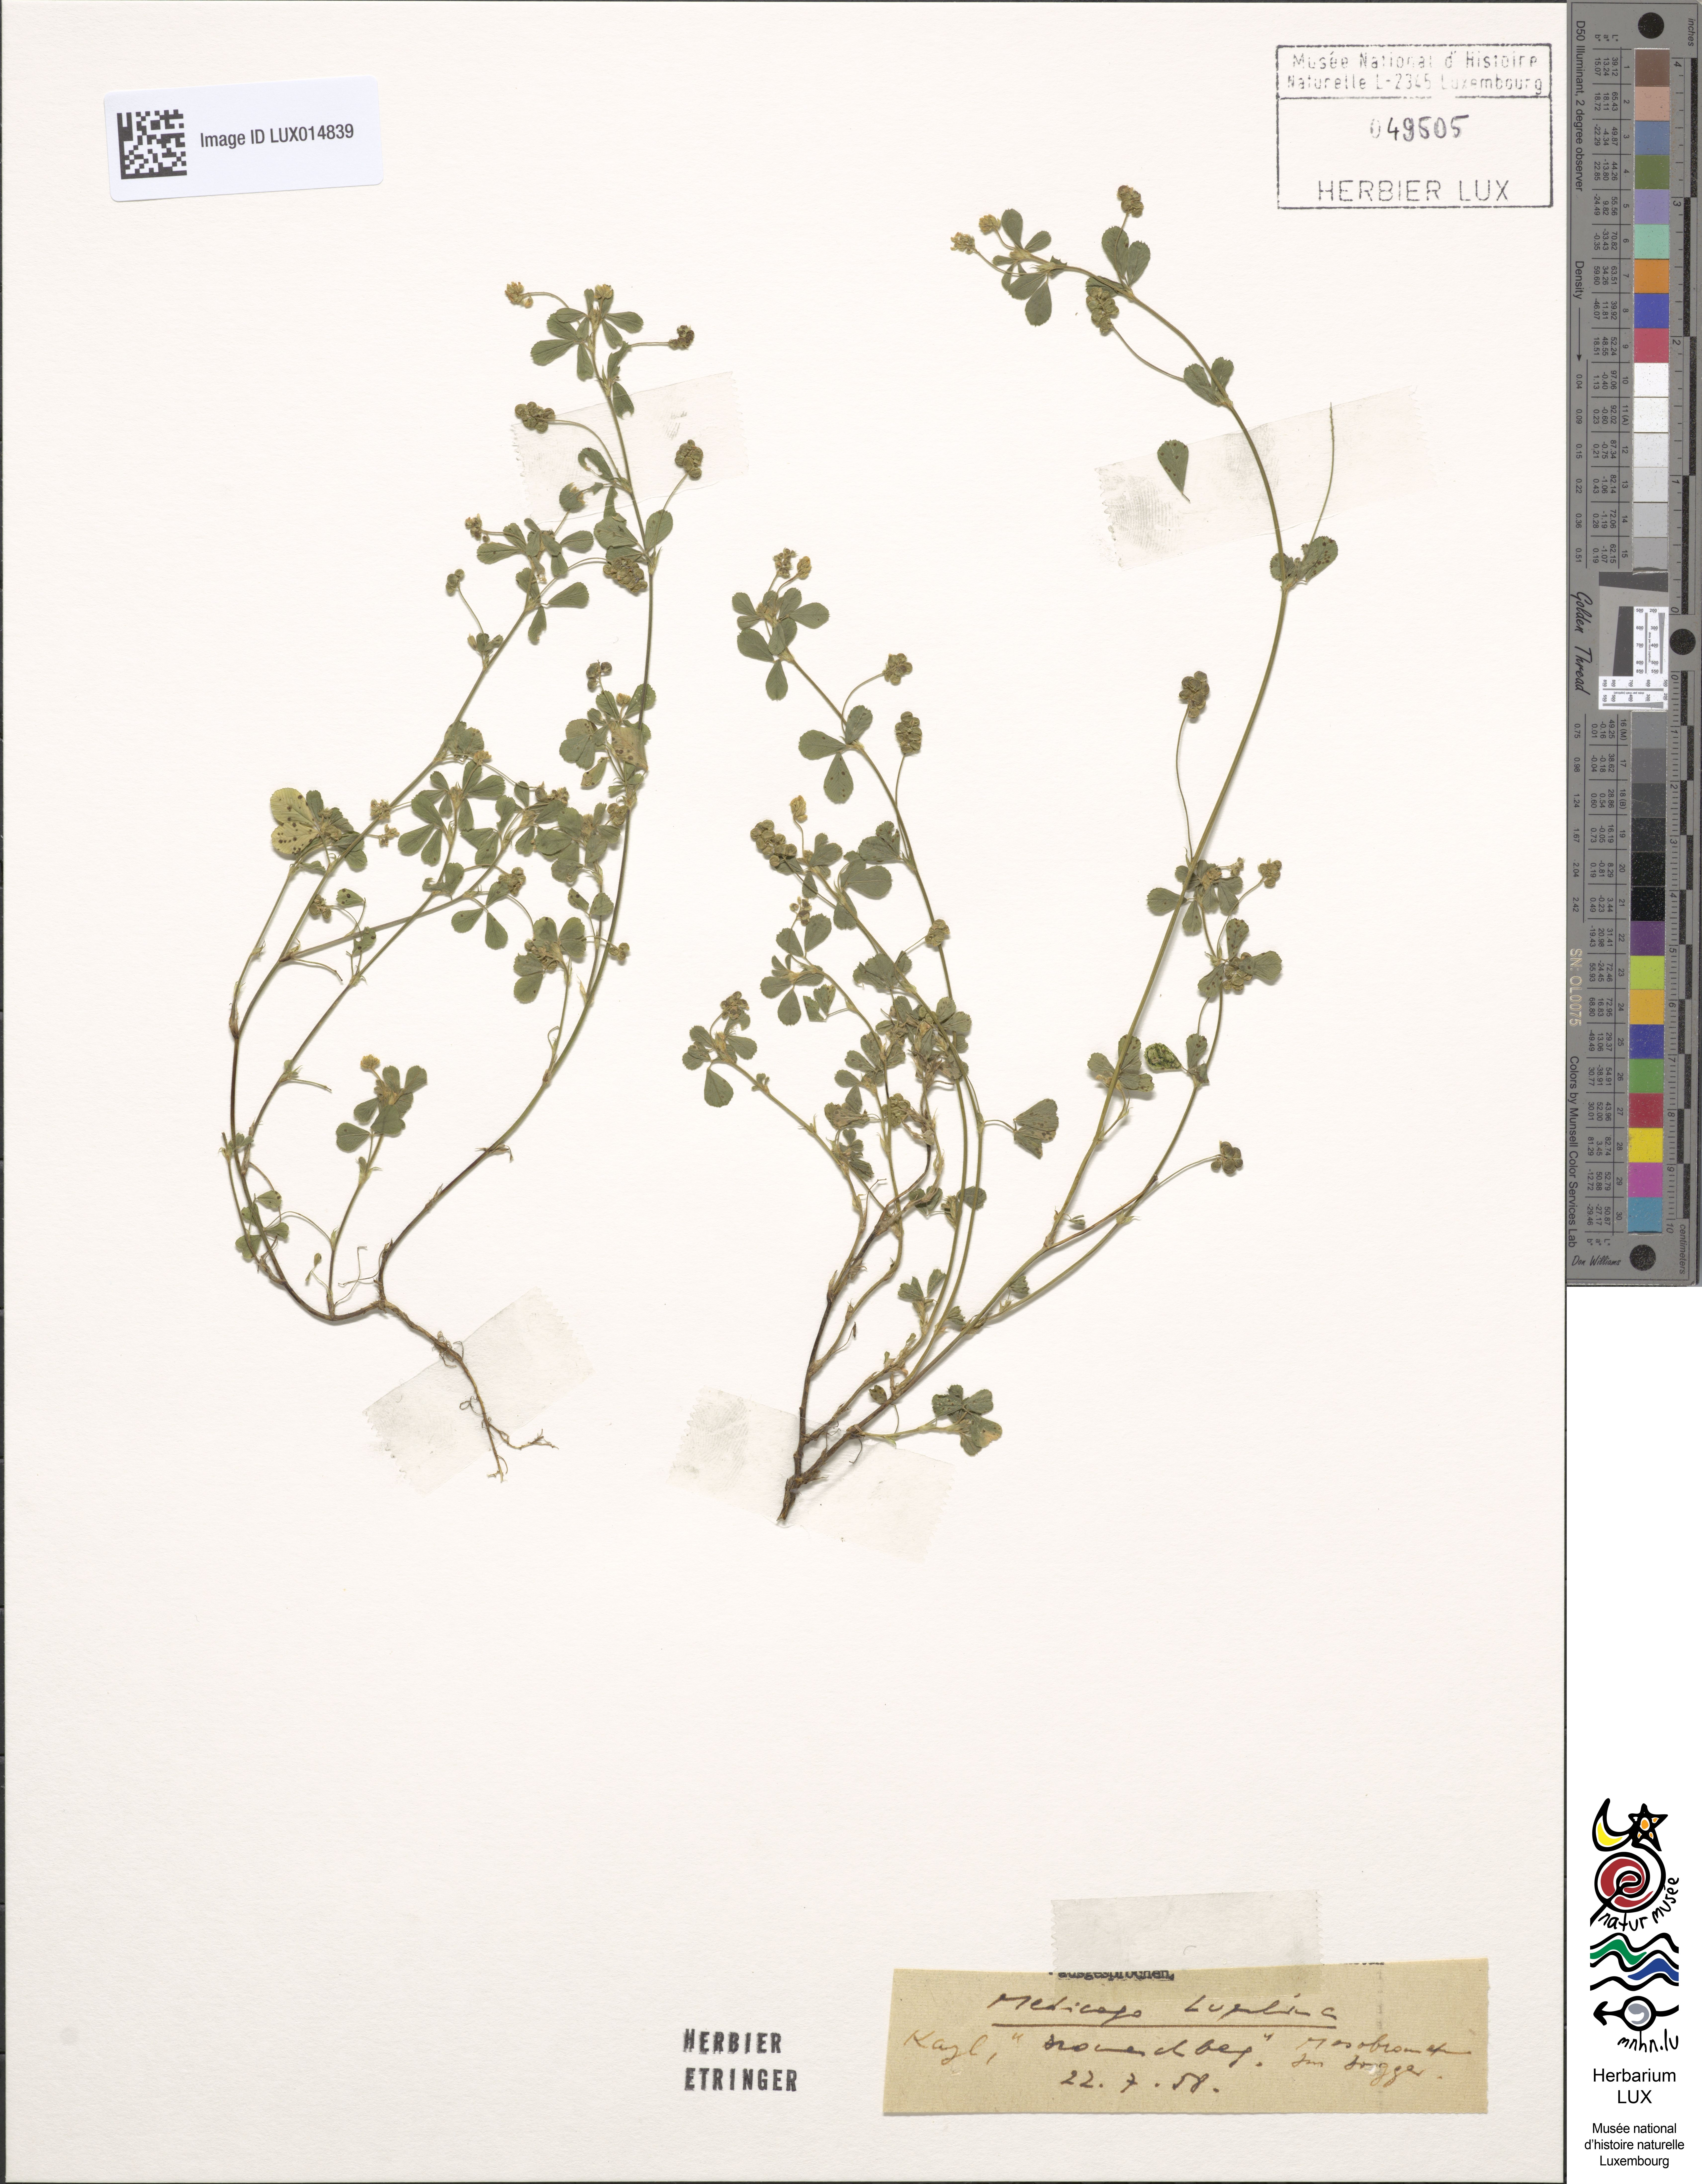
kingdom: Plantae
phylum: Tracheophyta
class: Magnoliopsida
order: Fabales
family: Fabaceae
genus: Medicago
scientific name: Medicago lupulina
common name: Black medick
